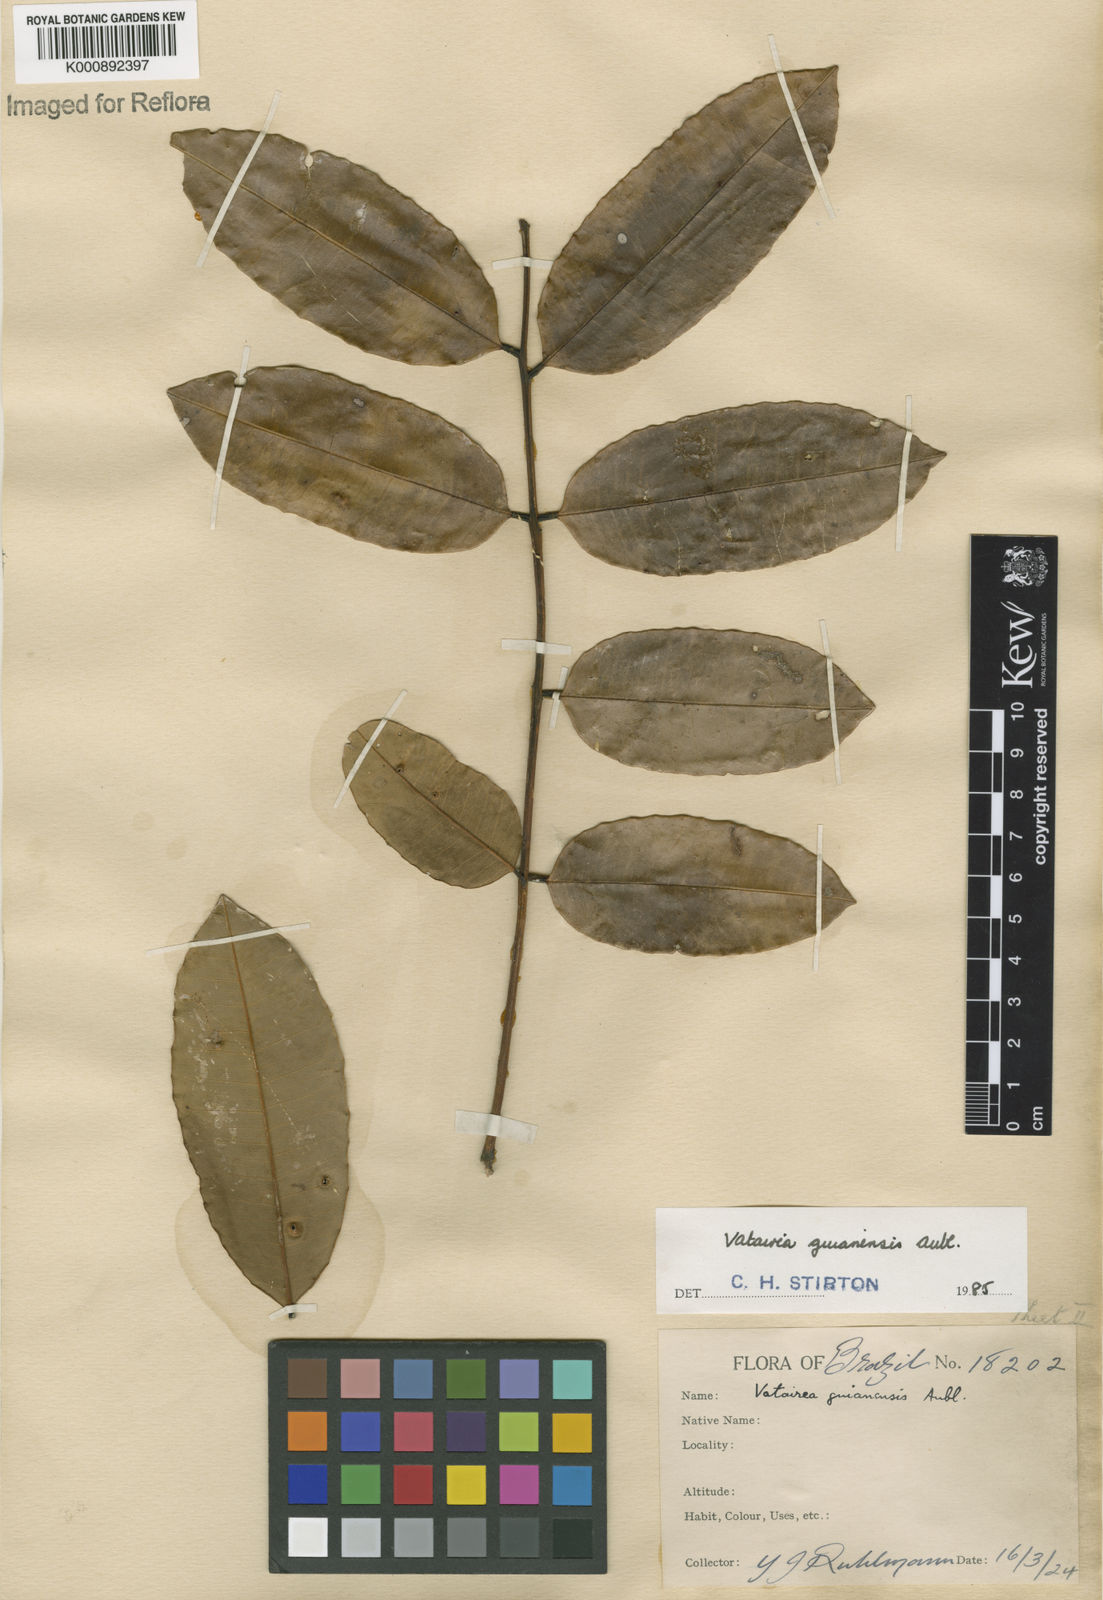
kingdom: Plantae
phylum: Tracheophyta
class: Magnoliopsida
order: Fabales
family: Fabaceae
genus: Vatairea
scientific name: Vatairea guianensis
